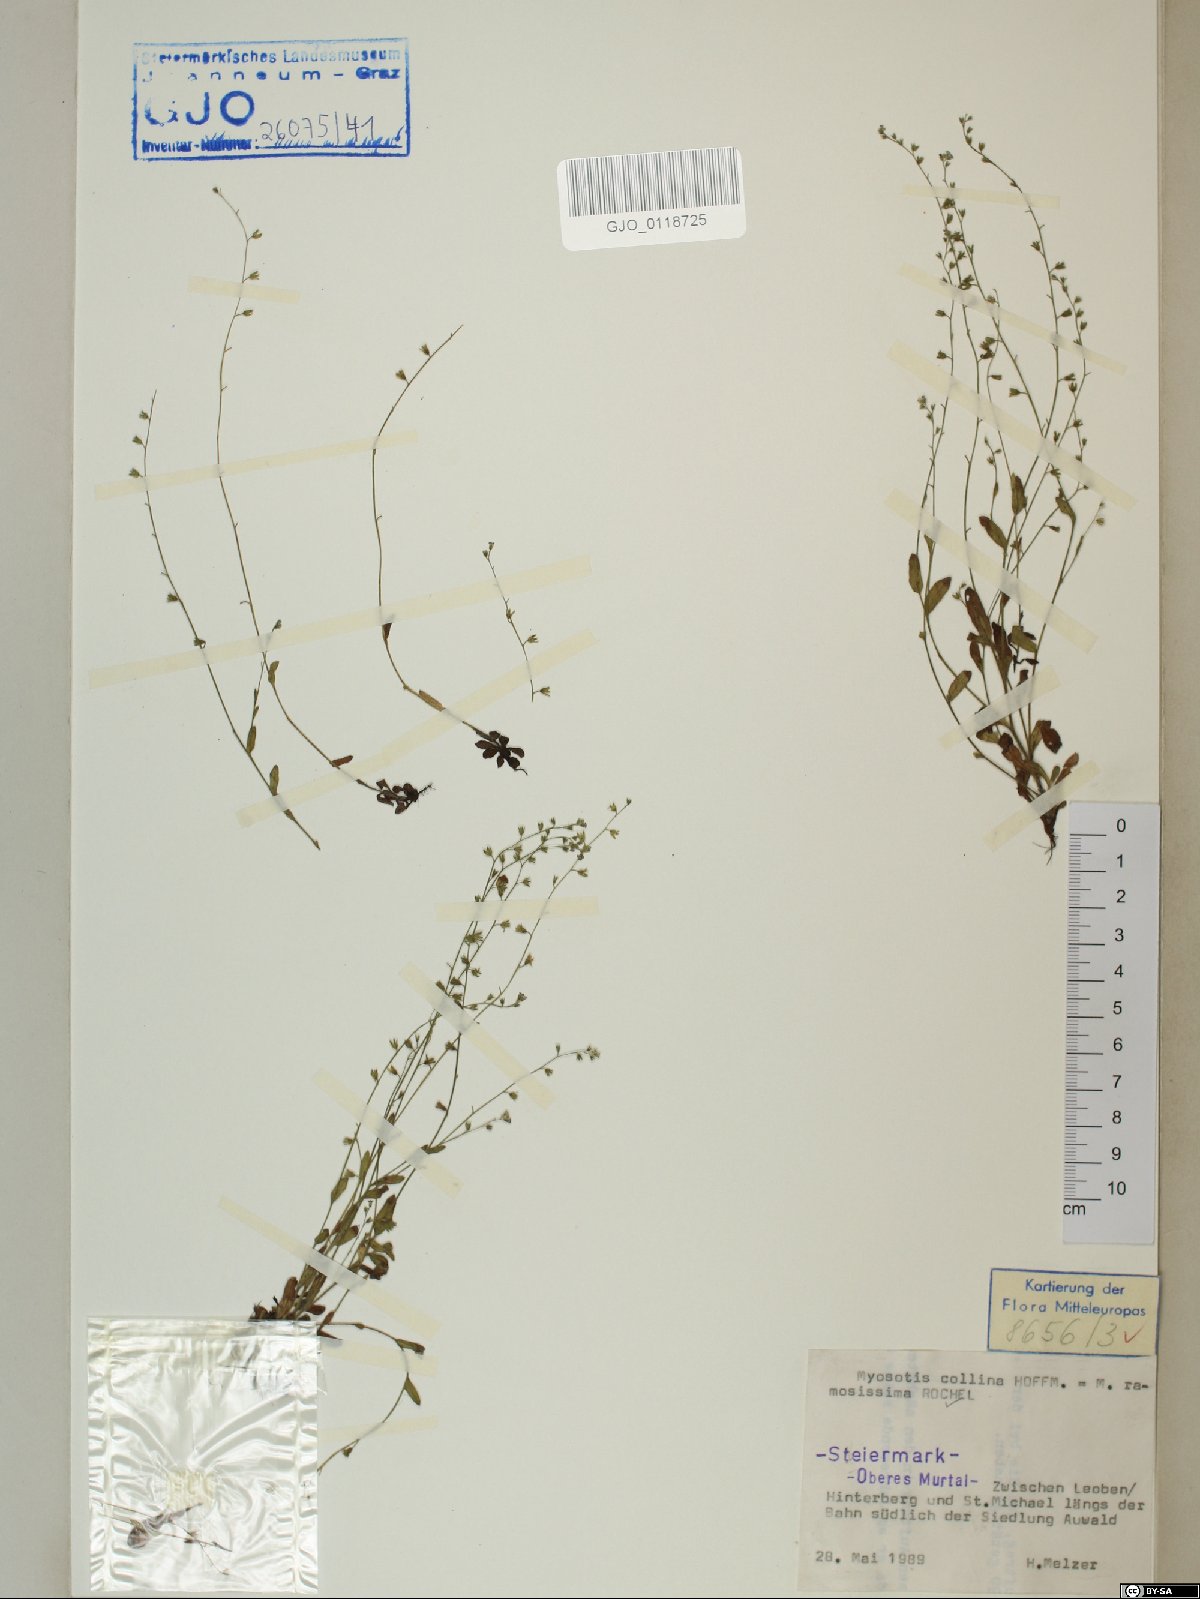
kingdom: Plantae
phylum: Tracheophyta
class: Magnoliopsida
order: Boraginales
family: Boraginaceae
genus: Myosotis
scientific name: Myosotis ramosissima
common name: Early forget-me-not
